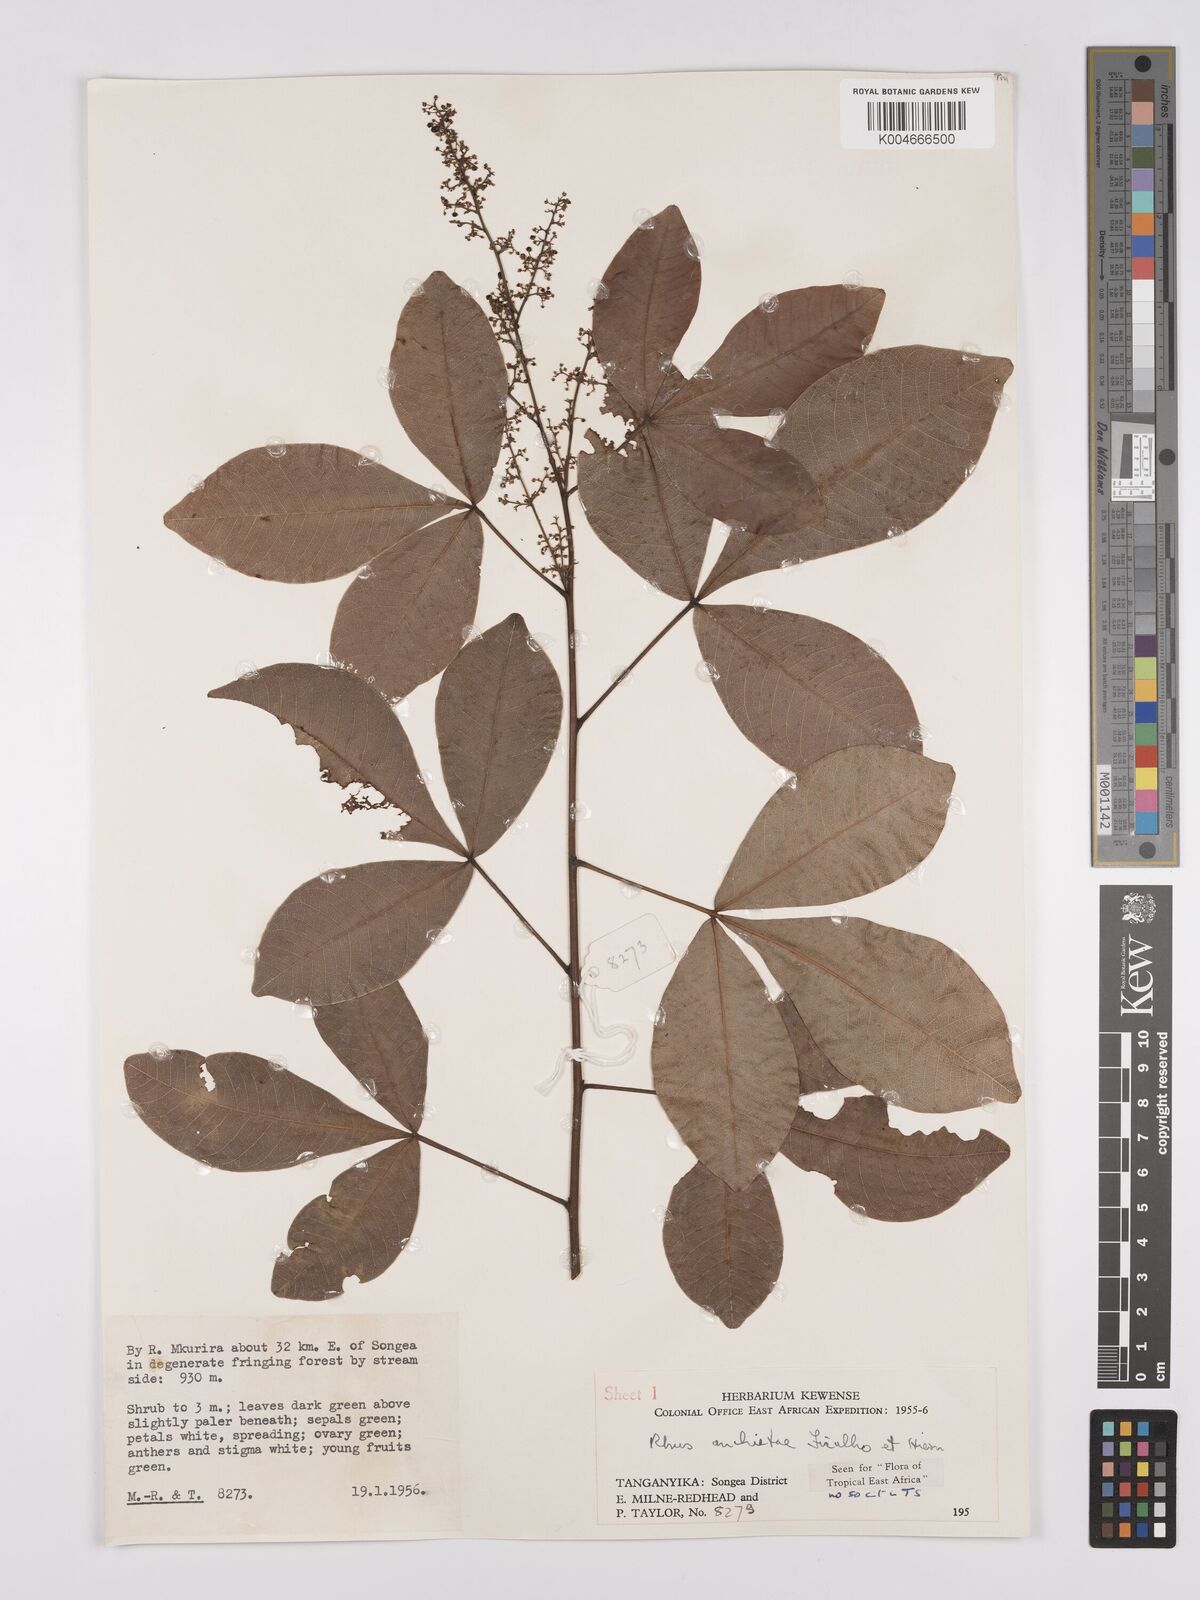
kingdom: Plantae
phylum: Tracheophyta
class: Magnoliopsida
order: Sapindales
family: Anacardiaceae
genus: Searsia
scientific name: Searsia anchietae
